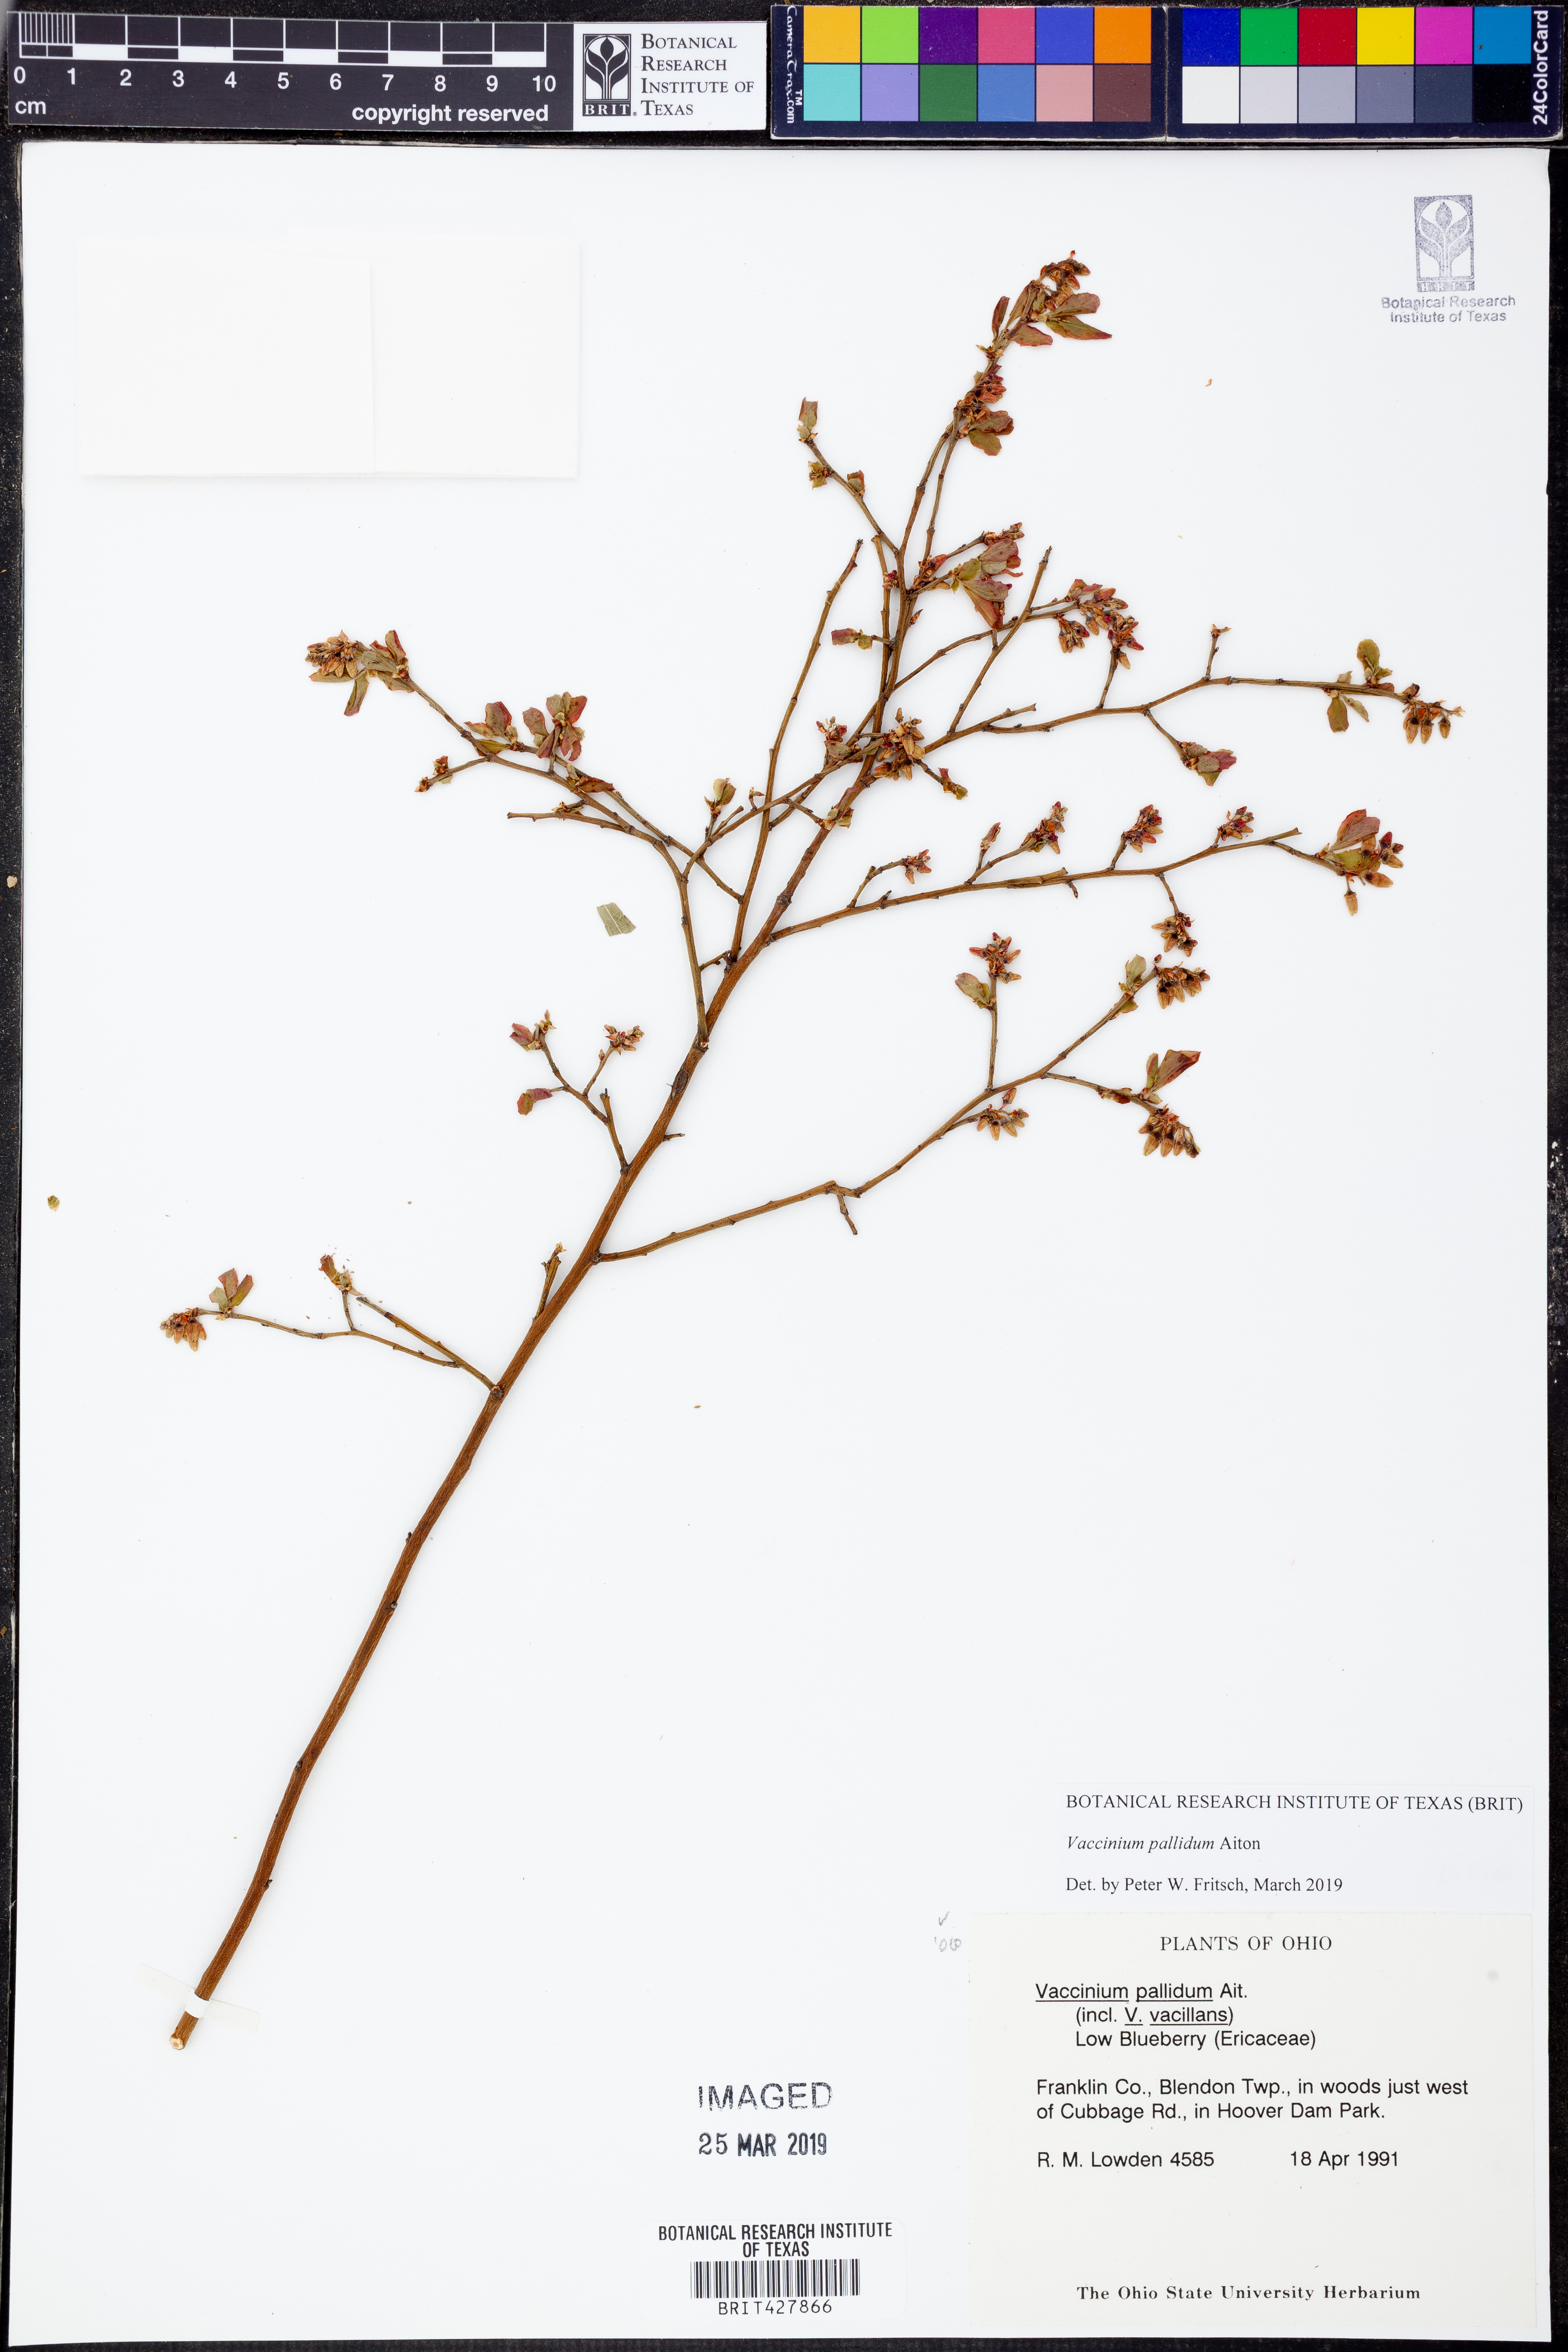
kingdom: Plantae
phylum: Tracheophyta
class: Magnoliopsida
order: Ericales
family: Ericaceae
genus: Vaccinium
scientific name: Vaccinium pallidum
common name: Blue ridge blueberry
